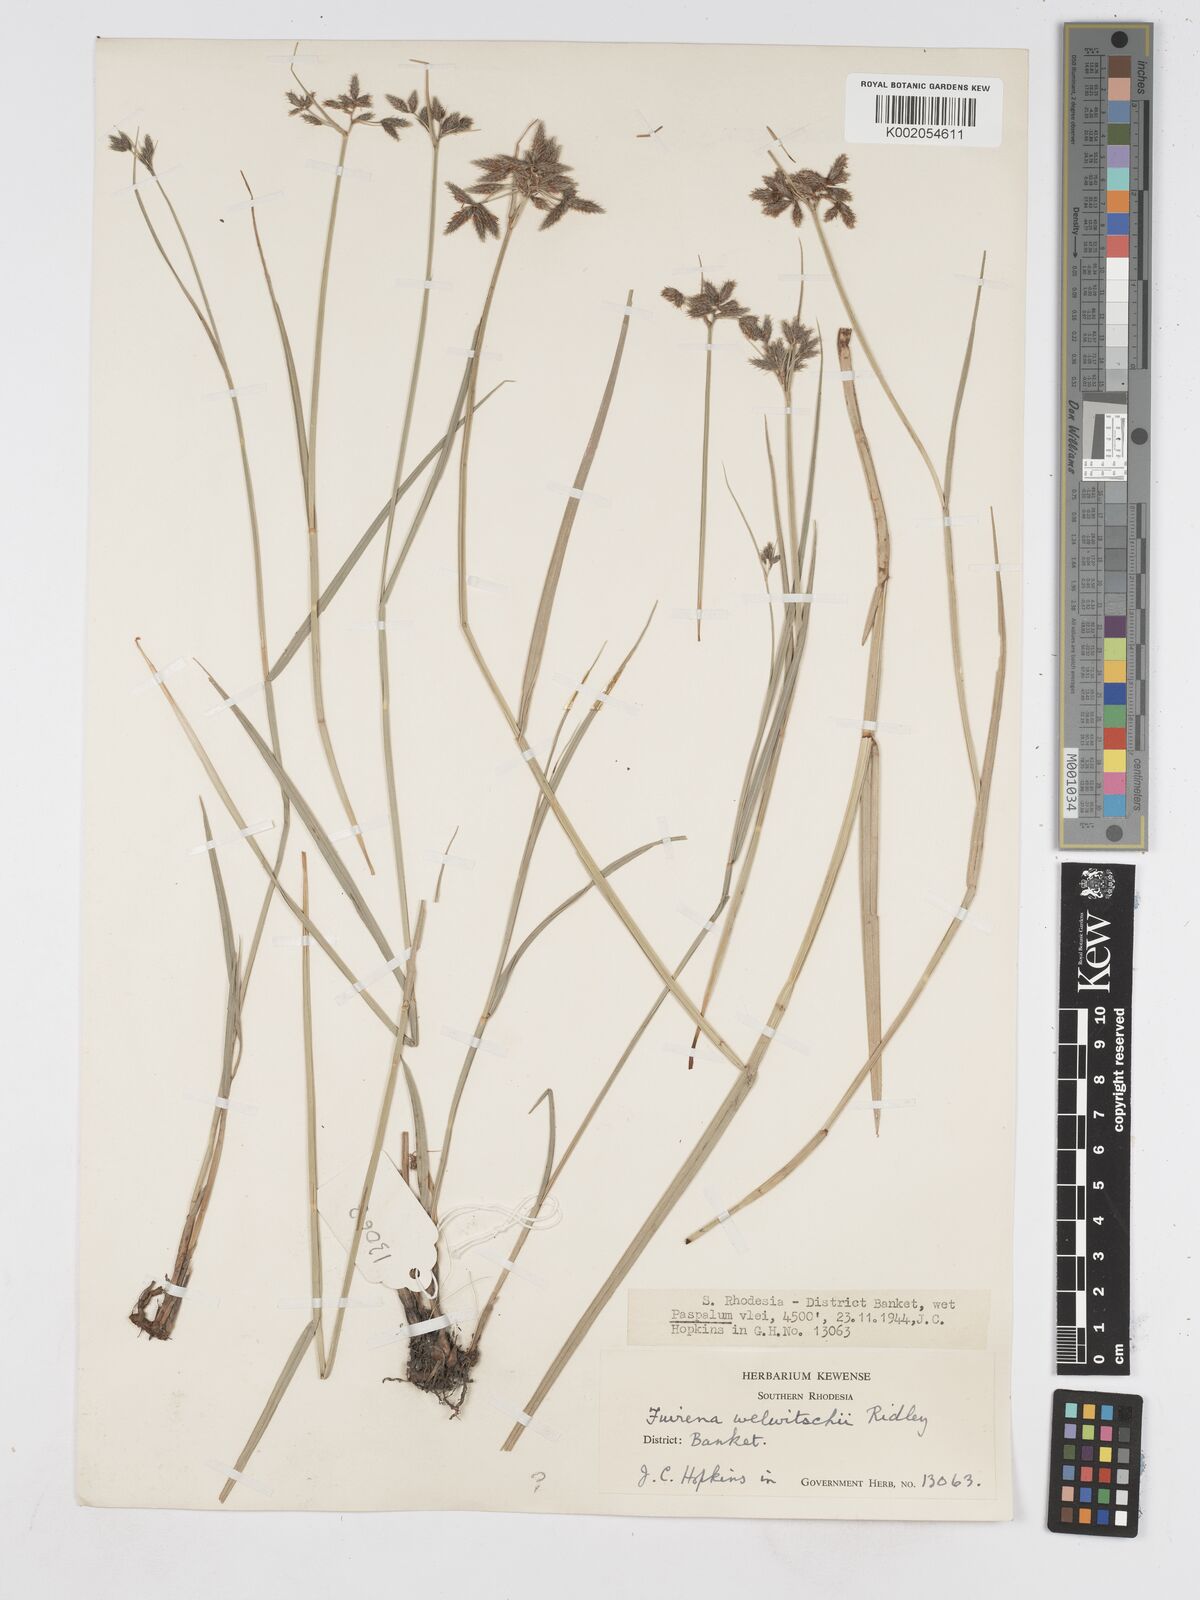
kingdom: Plantae
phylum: Tracheophyta
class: Liliopsida
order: Poales
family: Cyperaceae
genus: Fuirena
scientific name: Fuirena welwitschii
